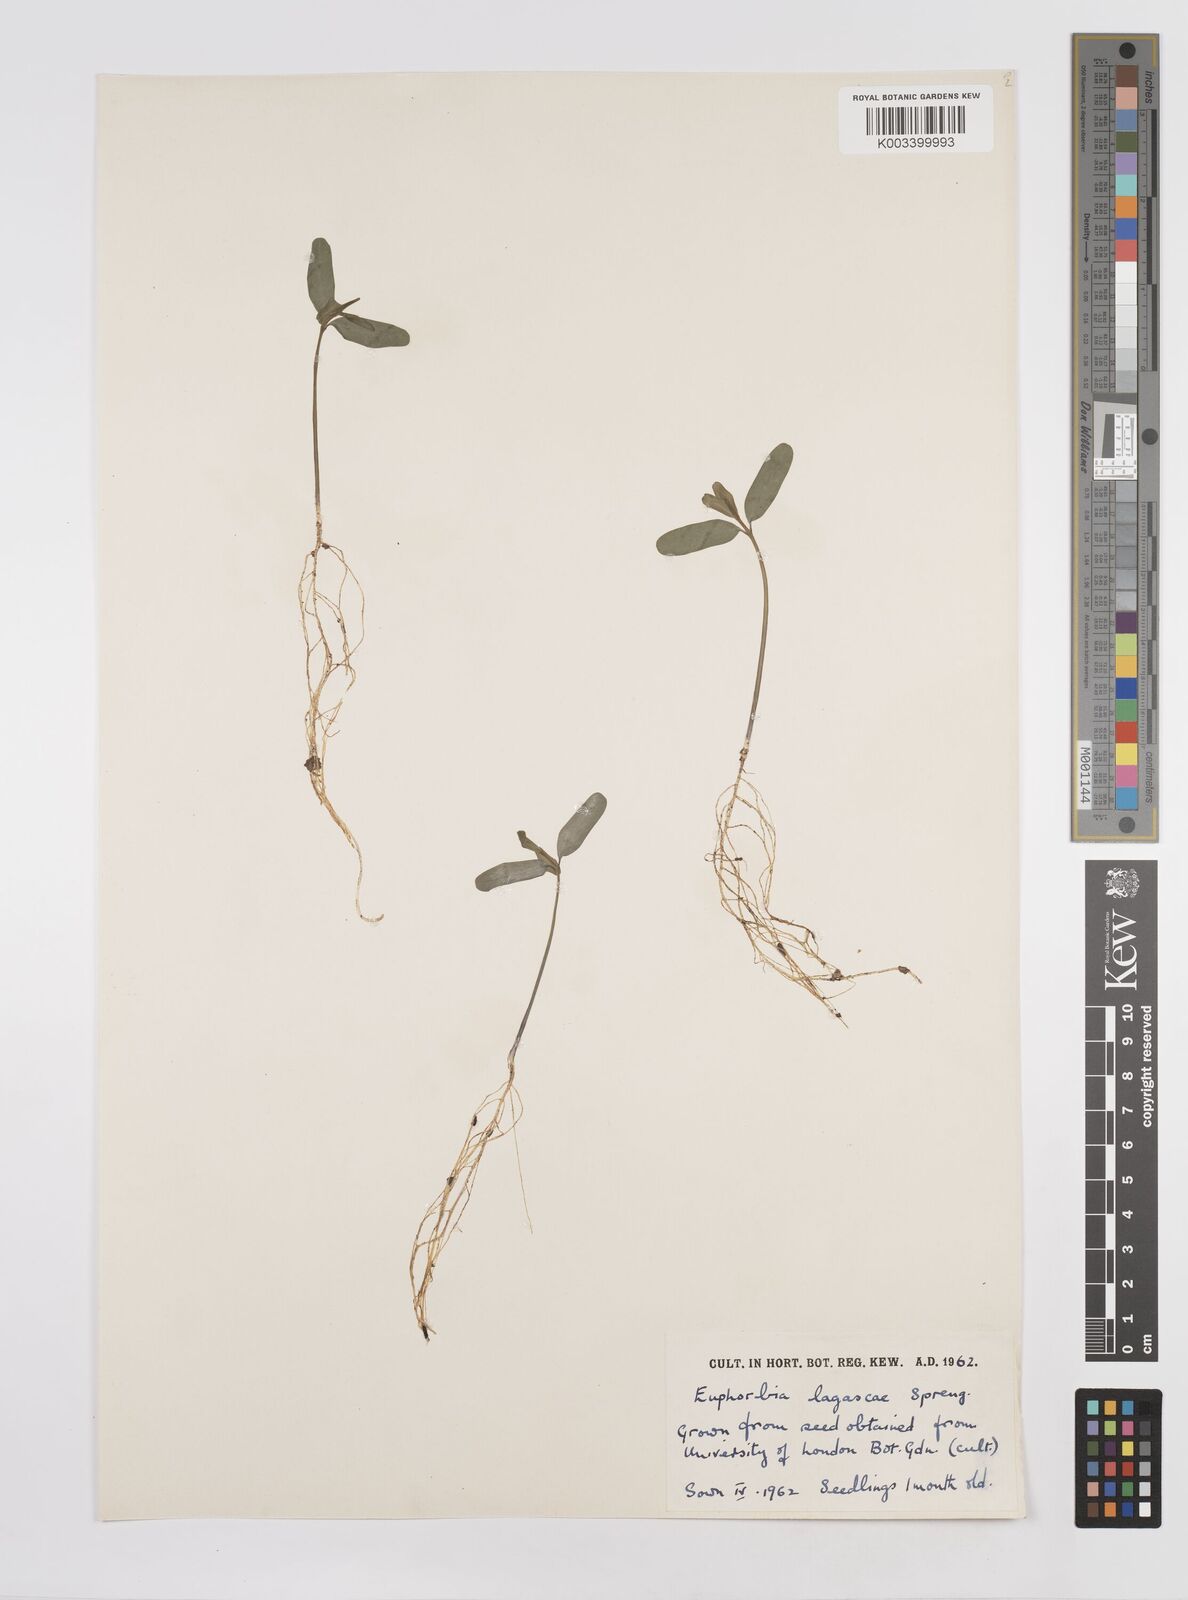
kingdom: Plantae
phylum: Tracheophyta
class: Magnoliopsida
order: Malpighiales
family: Euphorbiaceae
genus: Euphorbia
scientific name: Euphorbia
